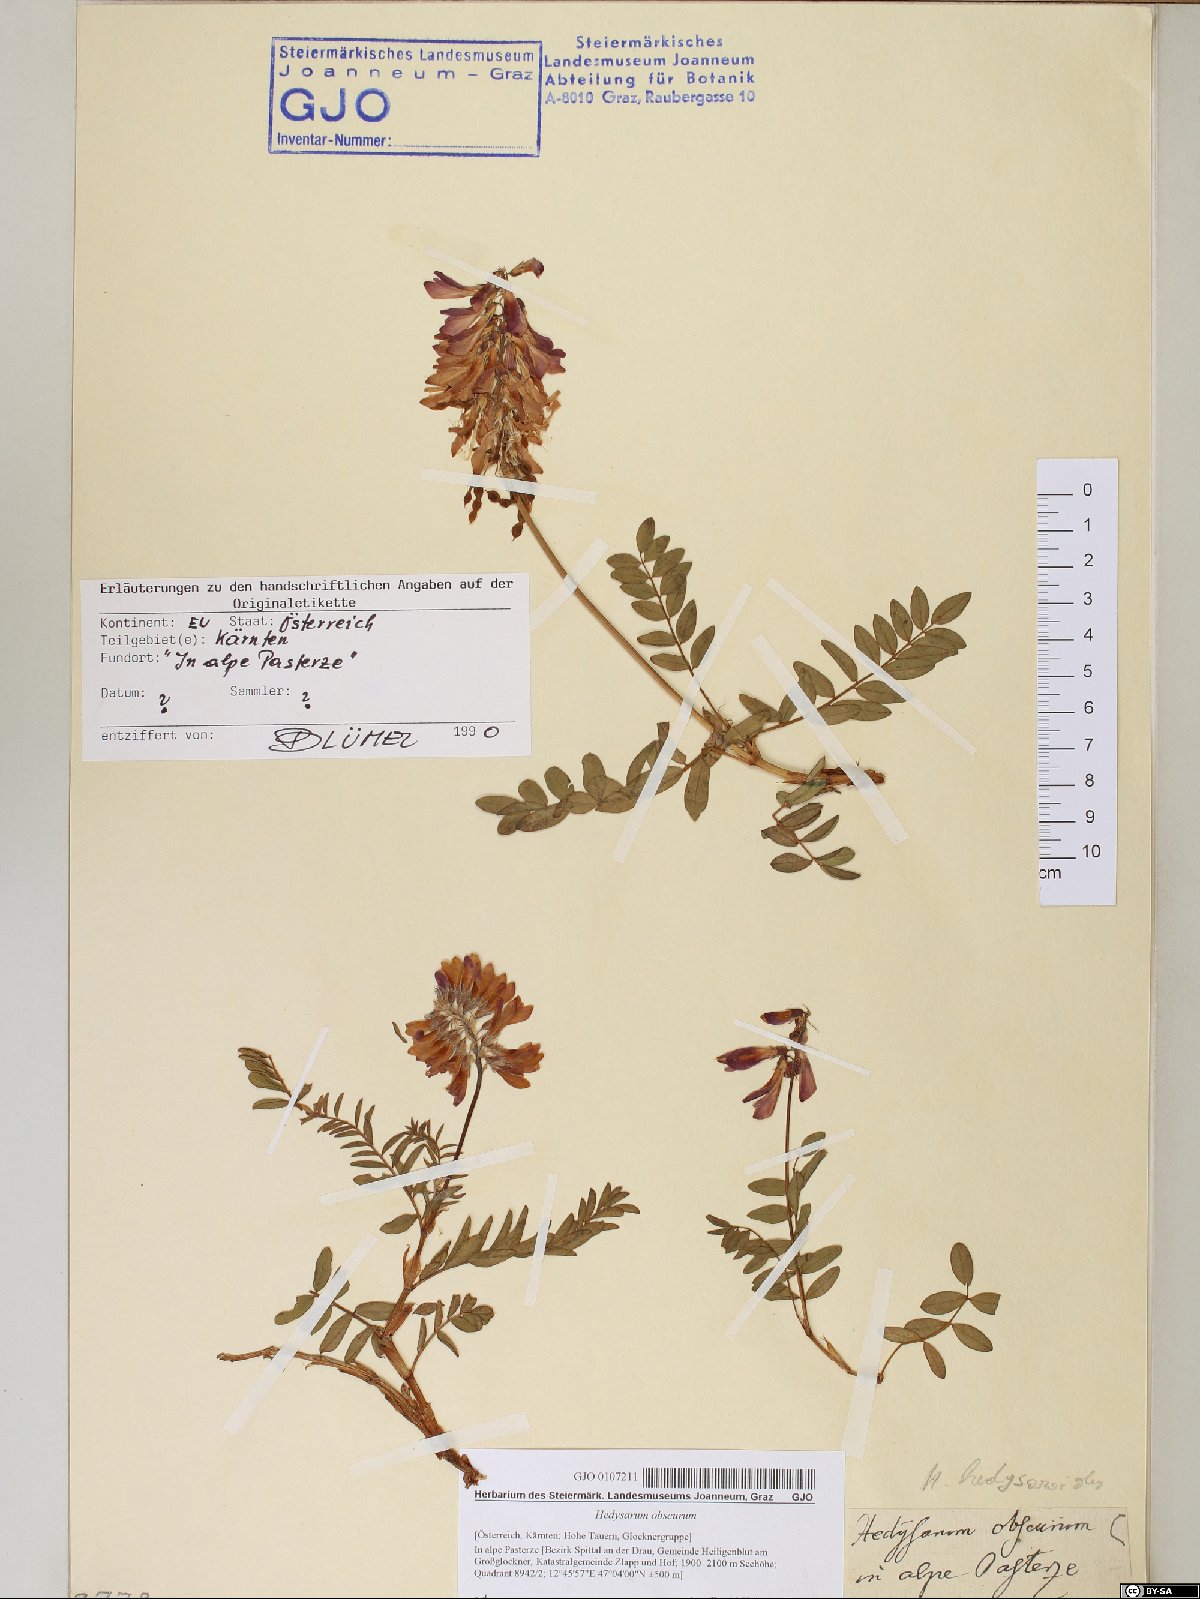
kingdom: Plantae
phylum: Tracheophyta
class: Magnoliopsida
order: Fabales
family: Fabaceae
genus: Hedysarum
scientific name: Hedysarum hedysaroides
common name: Alpine french-honeysuckle
